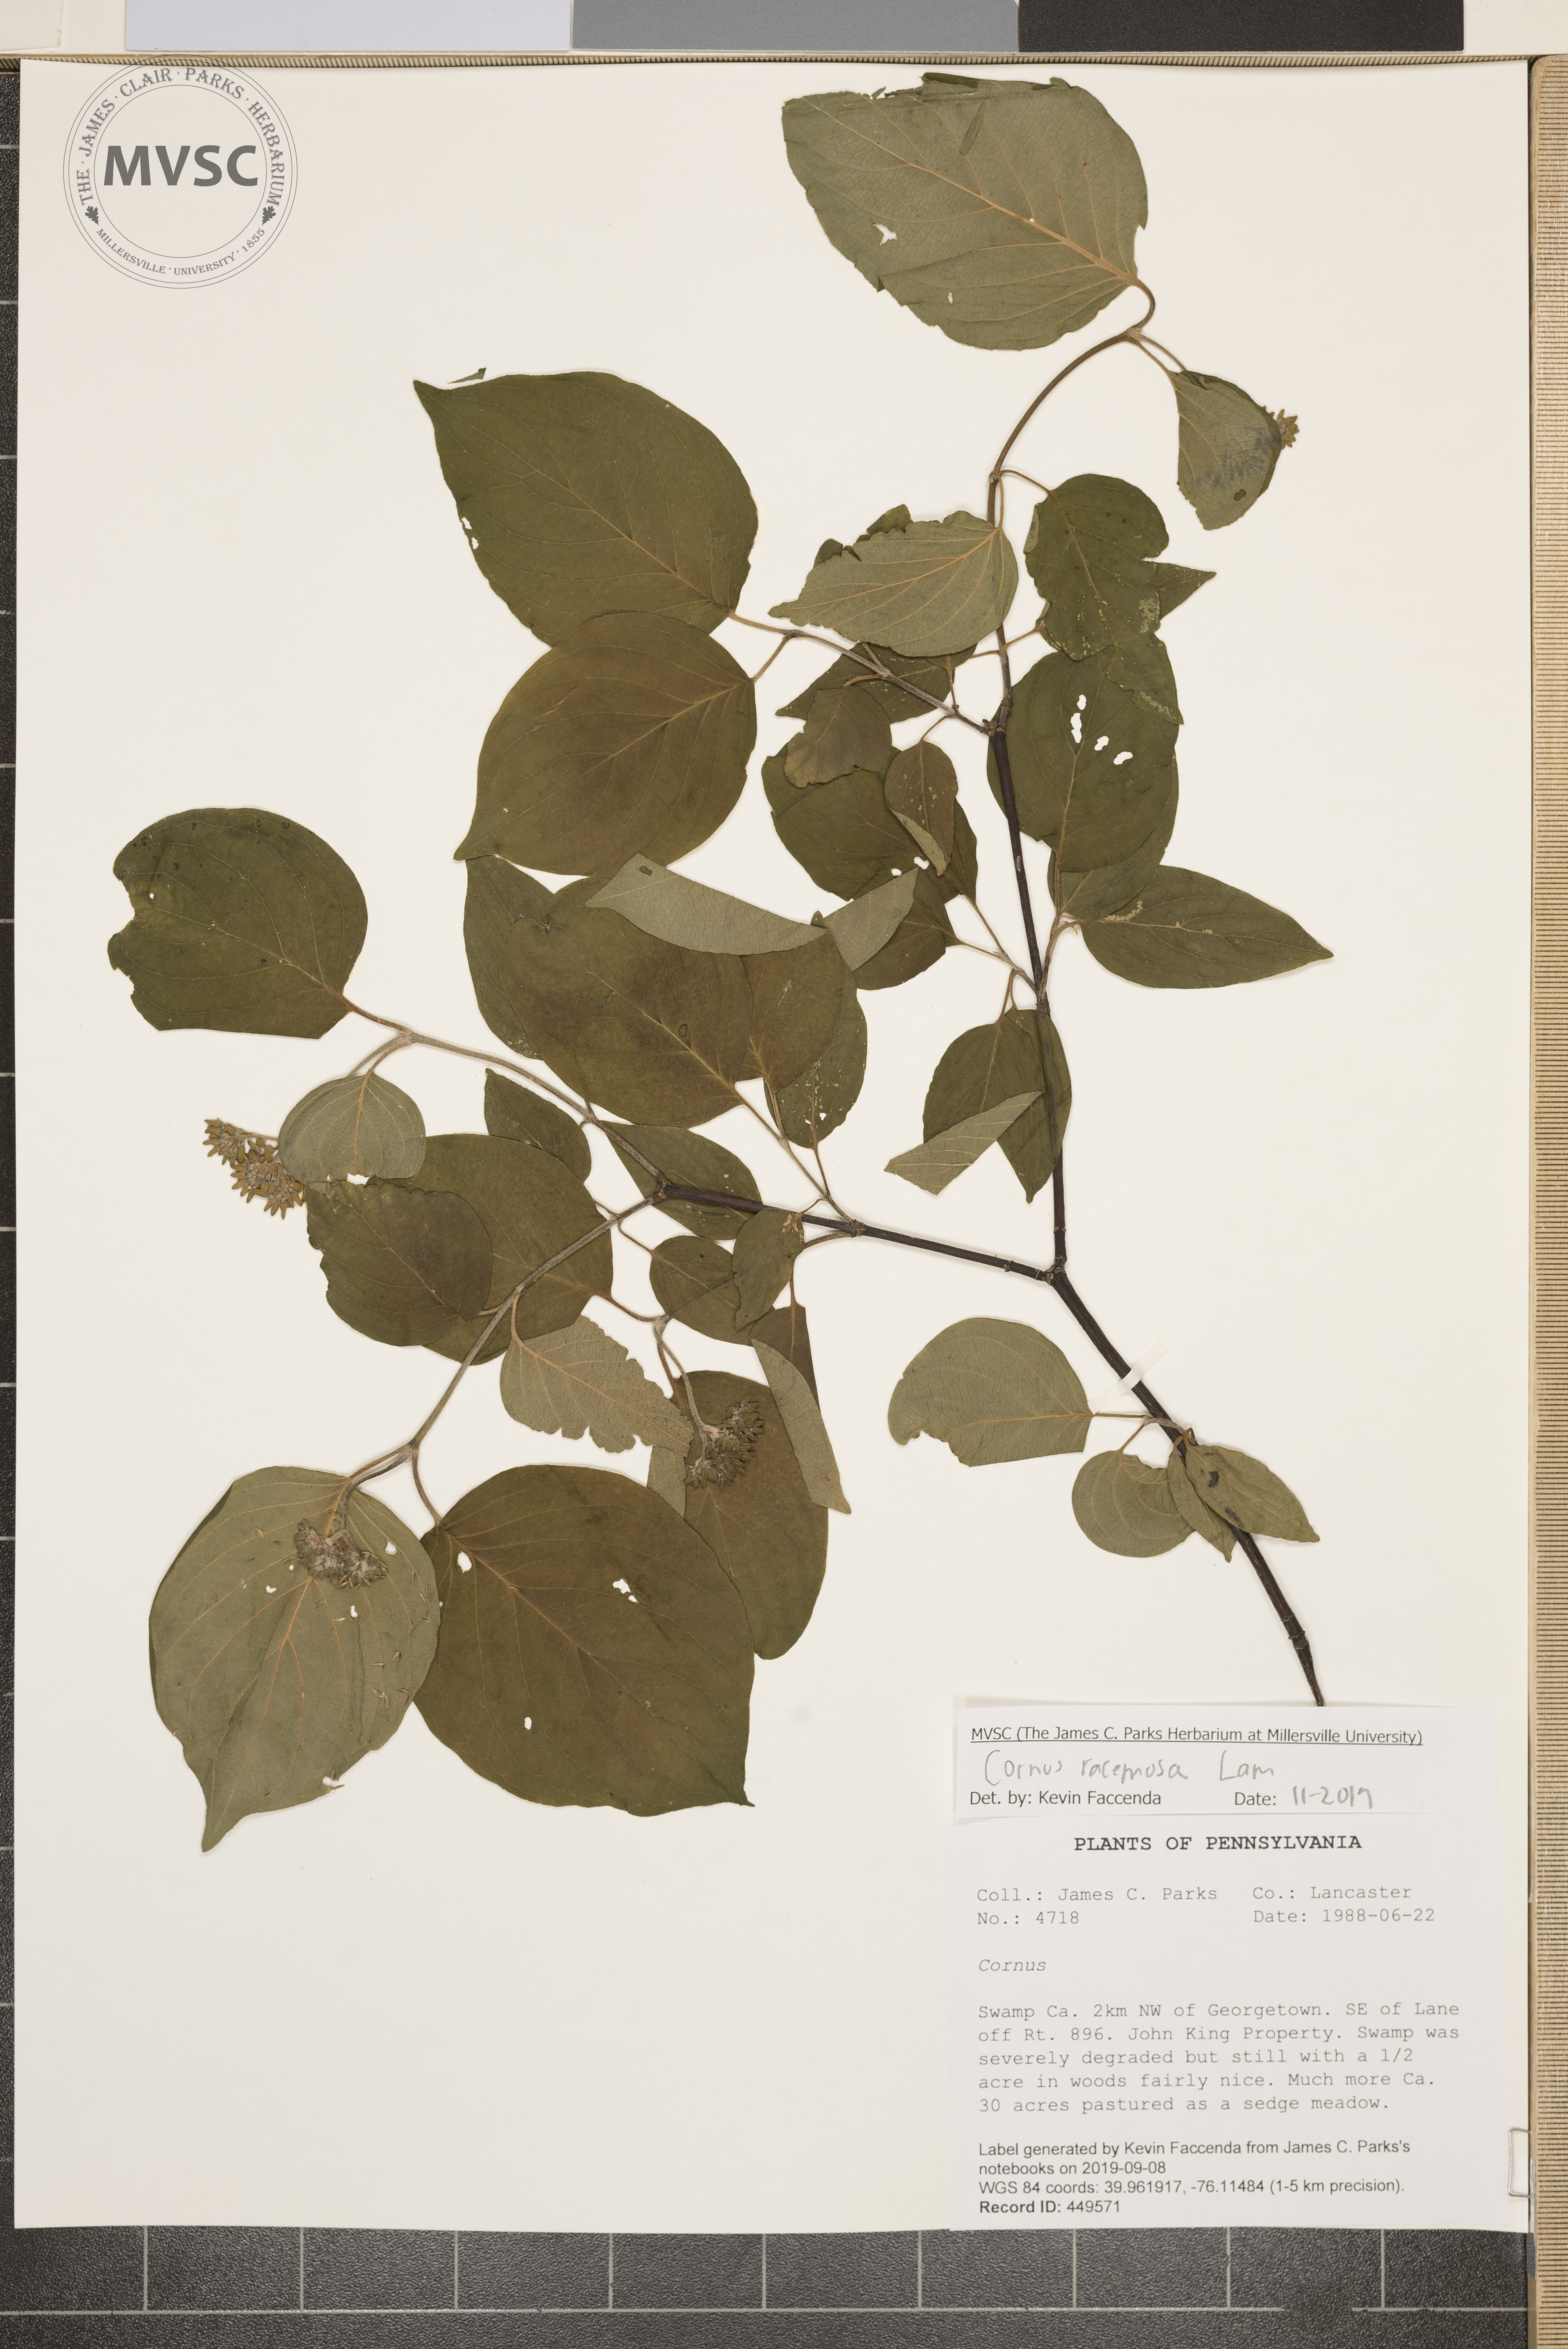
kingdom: Plantae
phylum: Tracheophyta
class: Magnoliopsida
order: Cornales
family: Cornaceae
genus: Cornus
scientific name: Cornus racemosa
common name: Panicled dogwood
